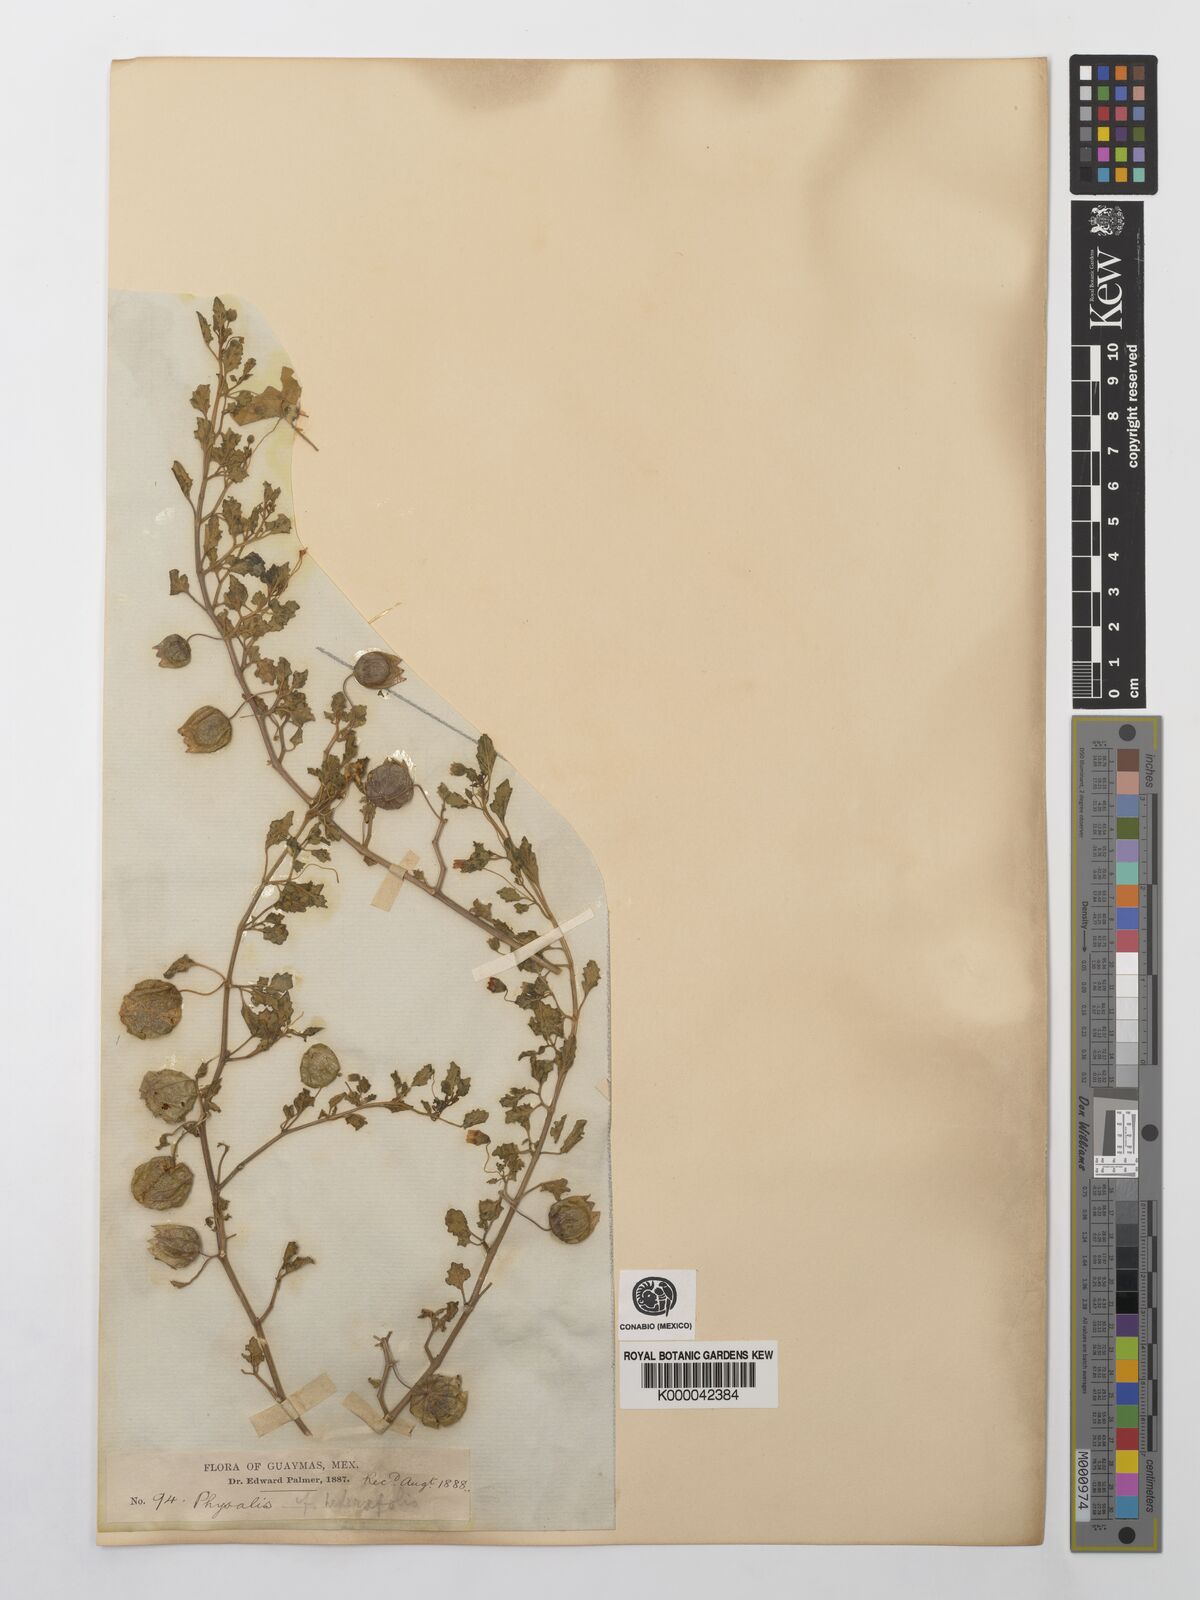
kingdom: Plantae
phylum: Tracheophyta
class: Magnoliopsida
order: Solanales
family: Solanaceae
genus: Physalis
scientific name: Physalis hederifolia
